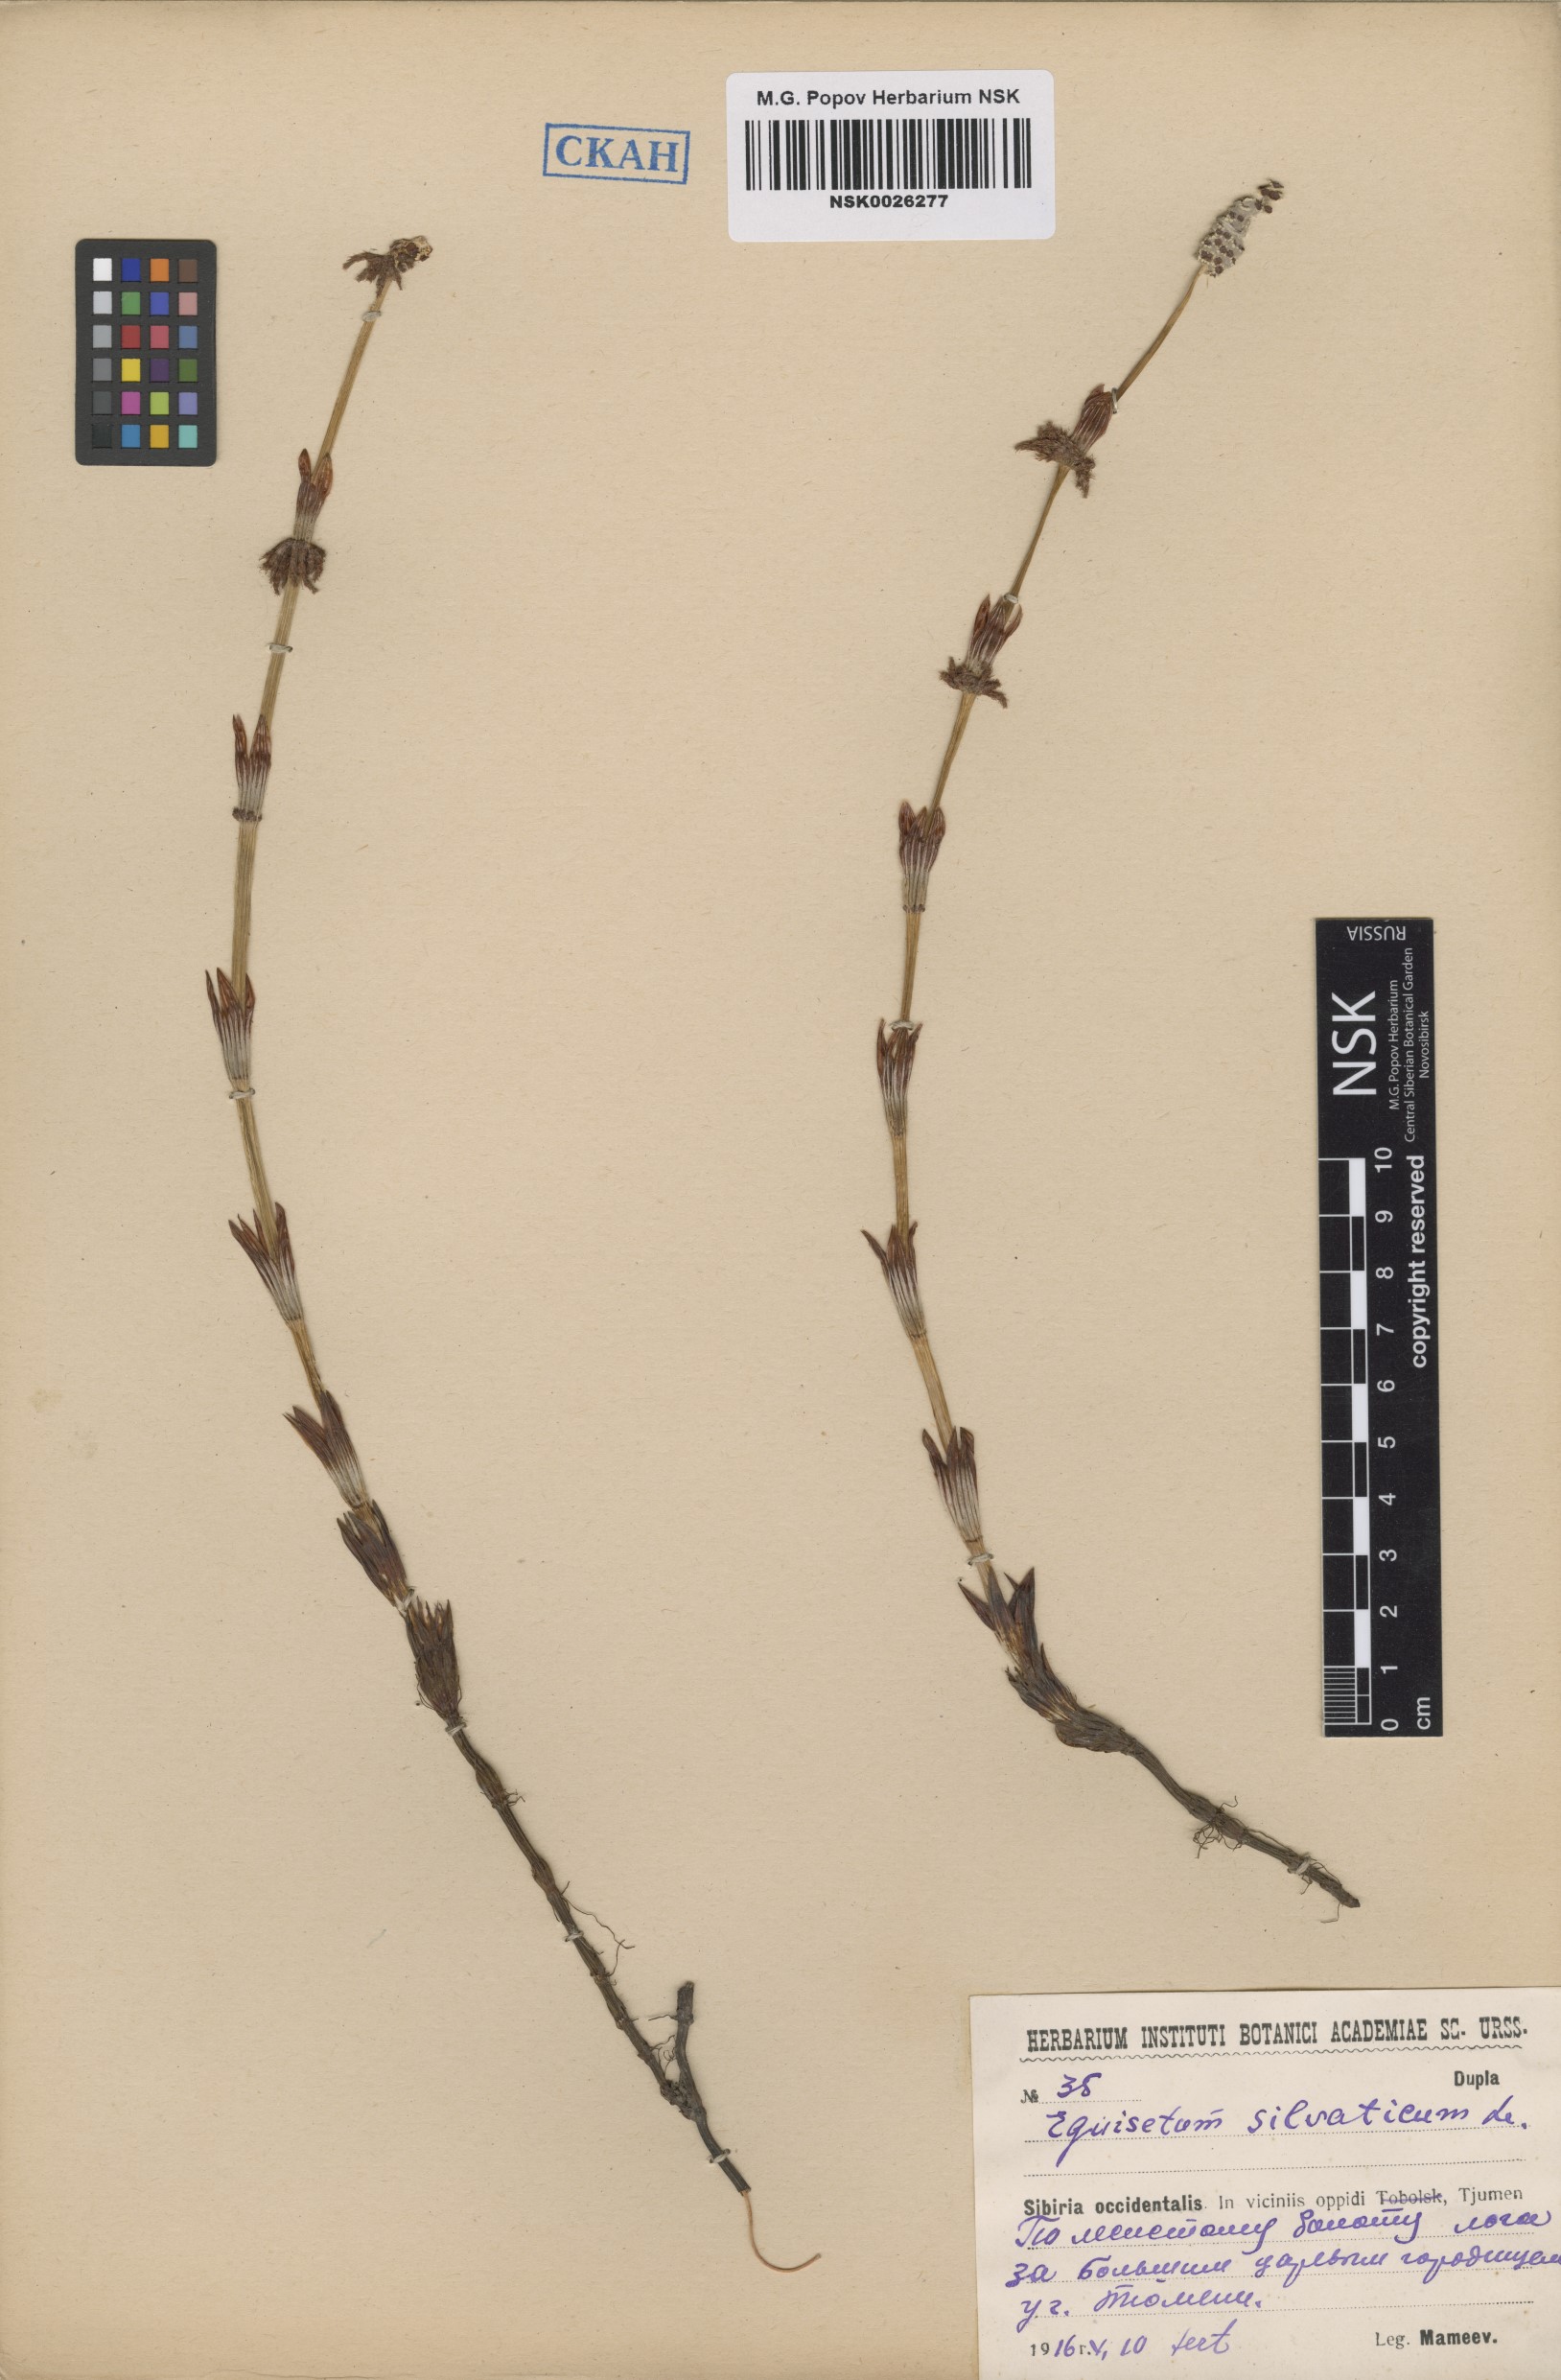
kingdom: Plantae
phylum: Tracheophyta
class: Polypodiopsida
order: Equisetales
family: Equisetaceae
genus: Equisetum
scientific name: Equisetum sylvaticum
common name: Wood horsetail
